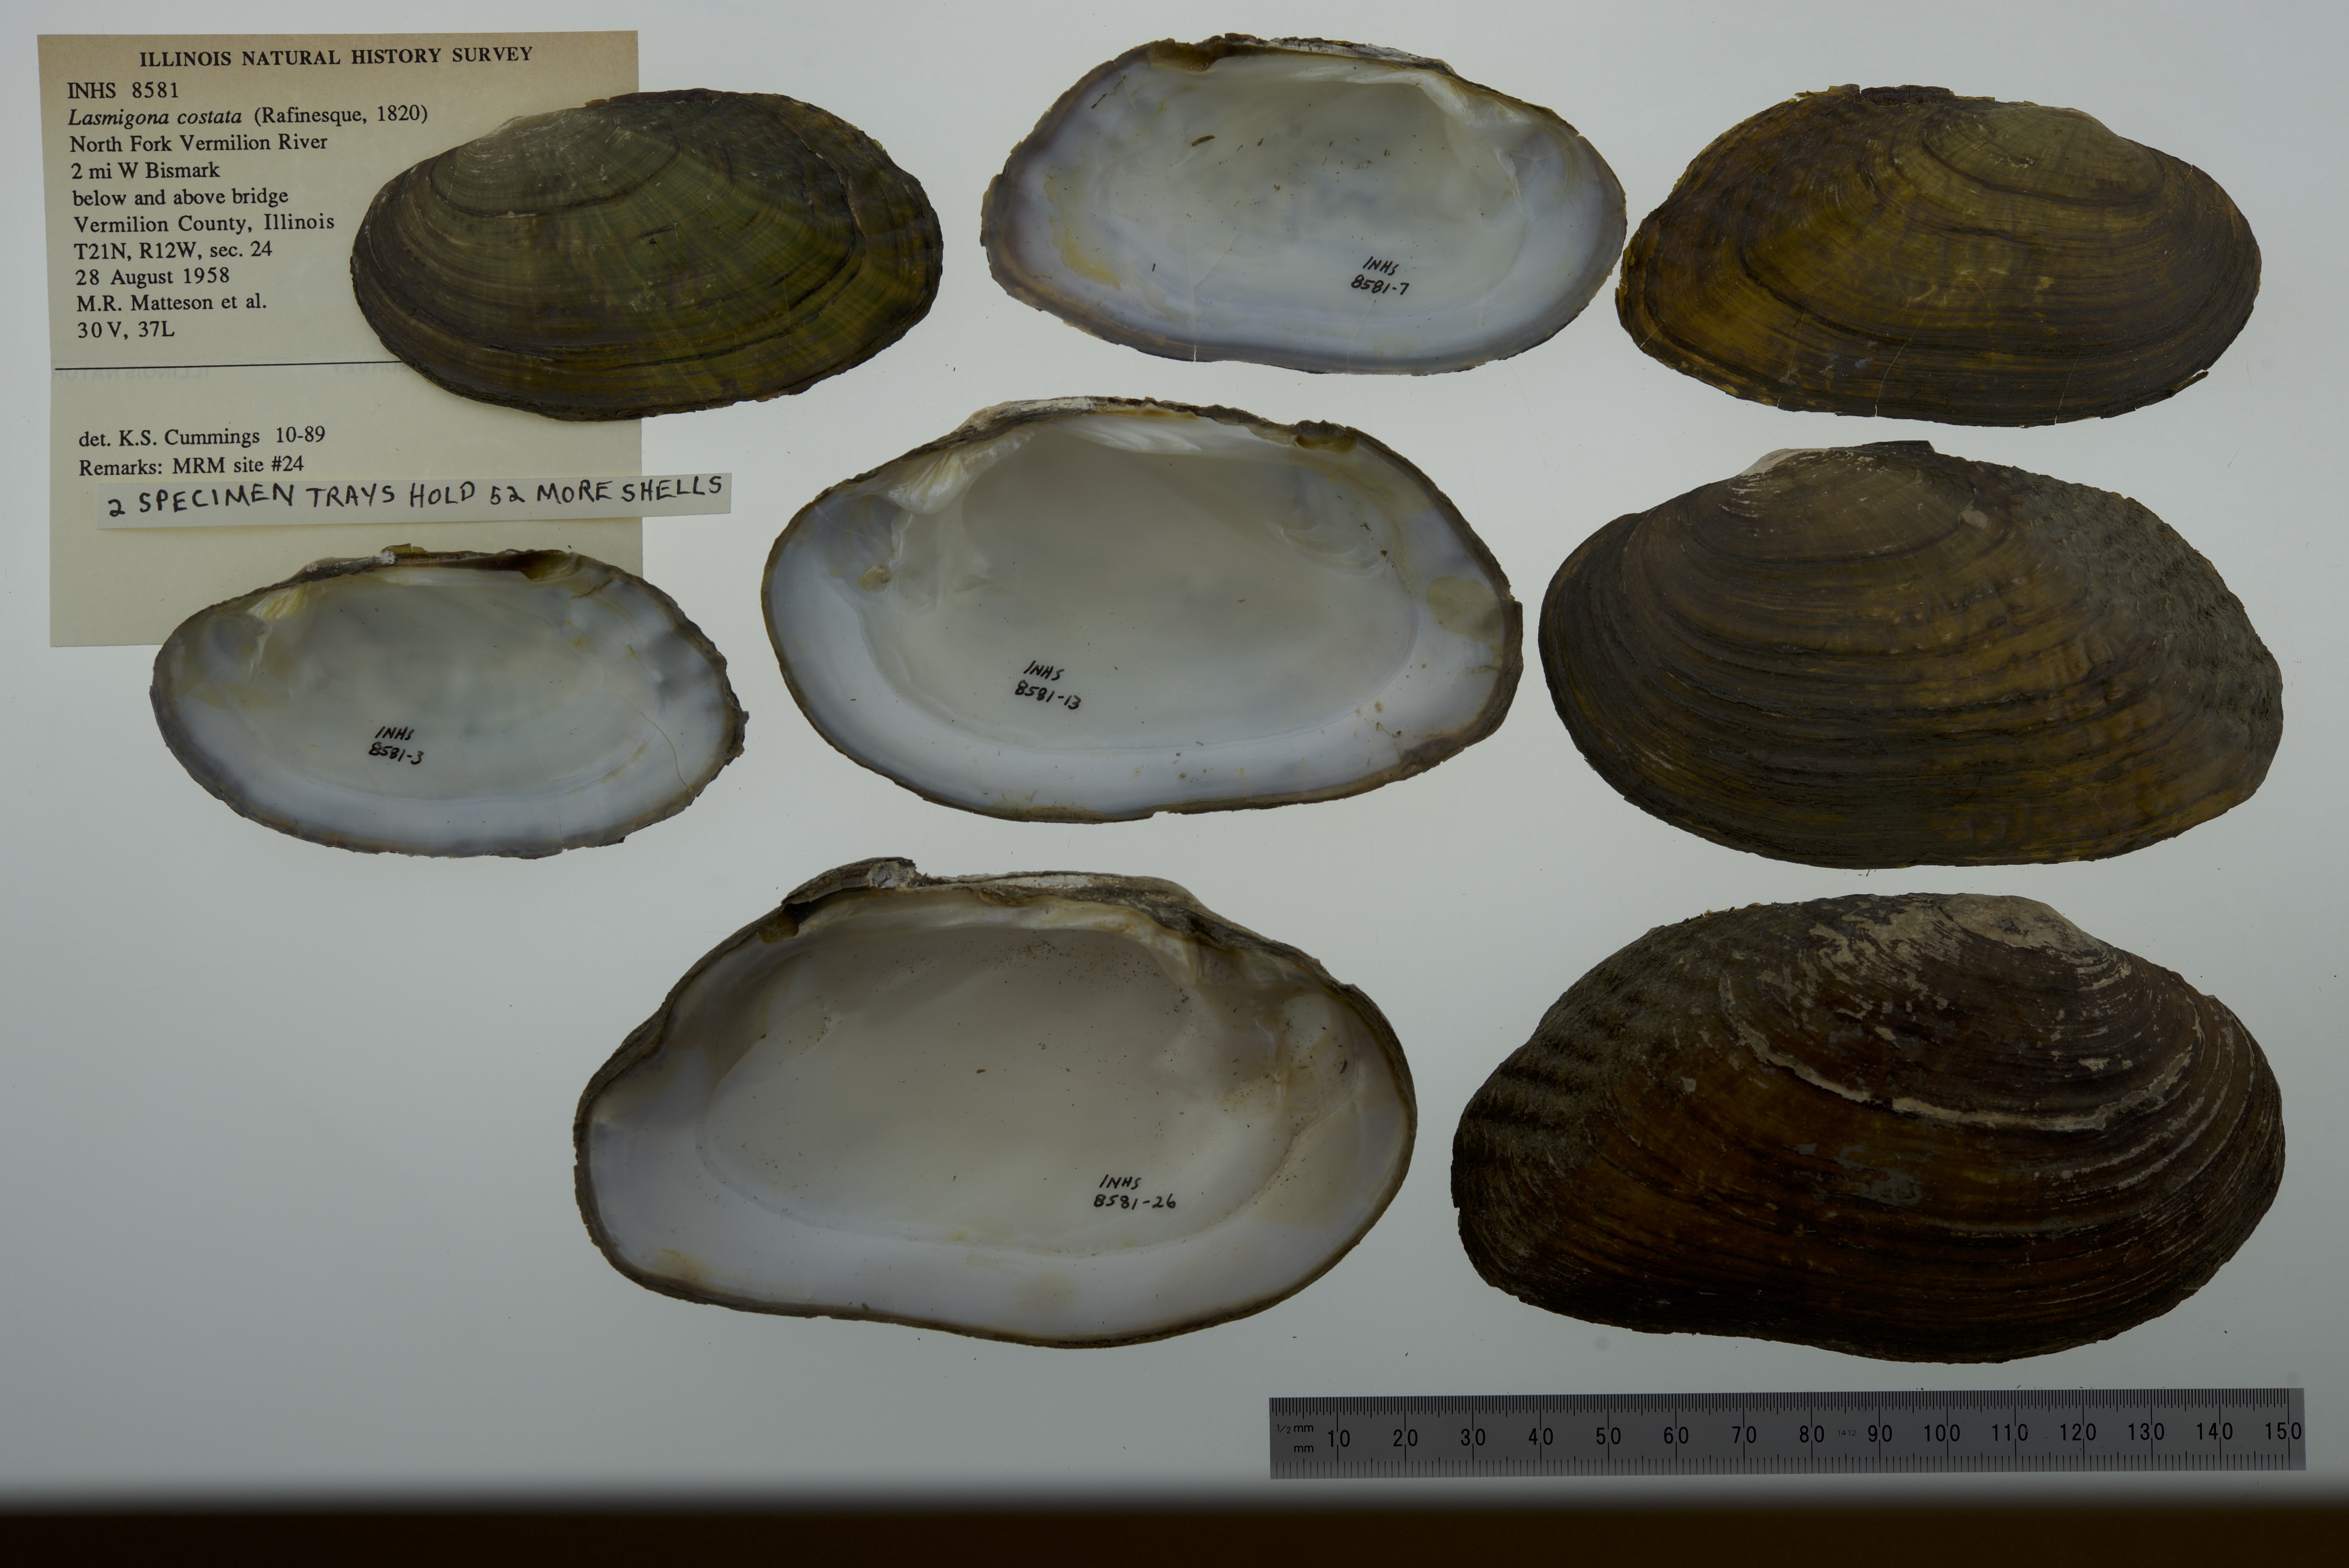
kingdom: Animalia
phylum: Mollusca
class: Bivalvia
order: Unionida
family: Unionidae
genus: Lasmigona
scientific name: Lasmigona costata
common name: Flutedshell
